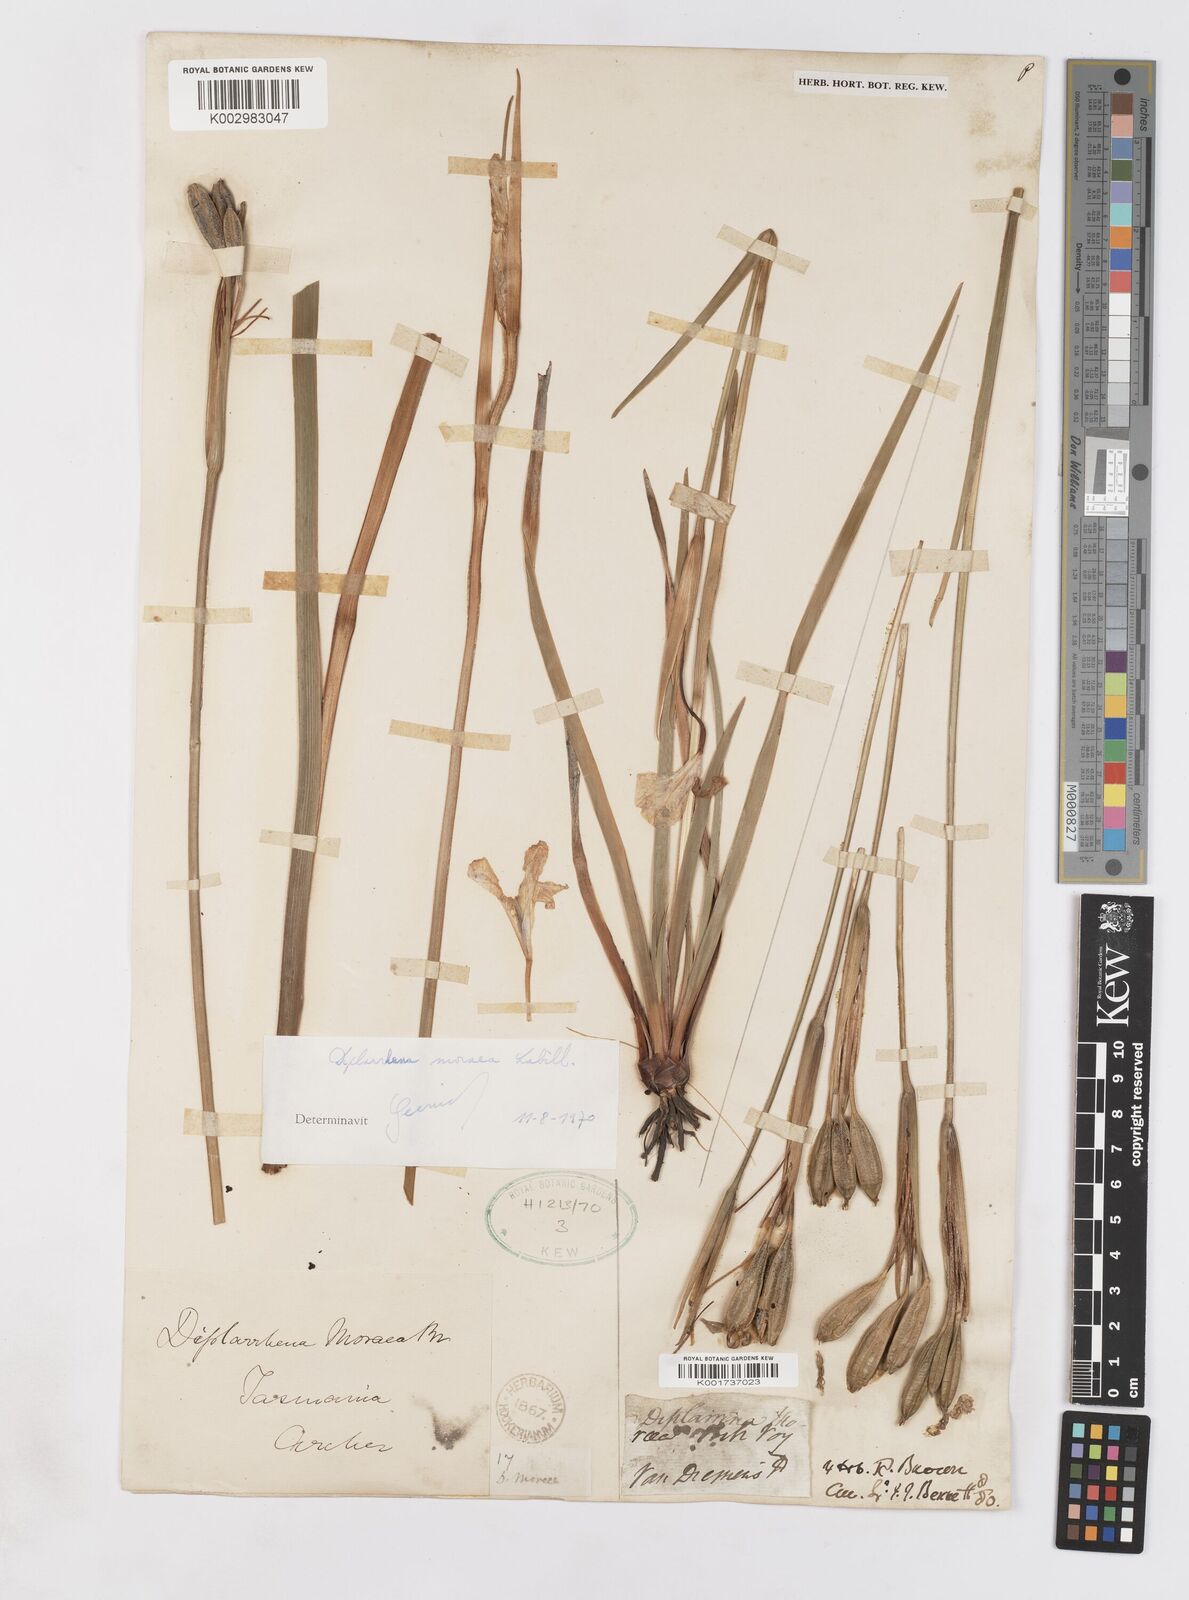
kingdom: Plantae
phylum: Tracheophyta
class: Liliopsida
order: Asparagales
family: Iridaceae
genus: Diplarrena
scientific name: Diplarrena moraea
